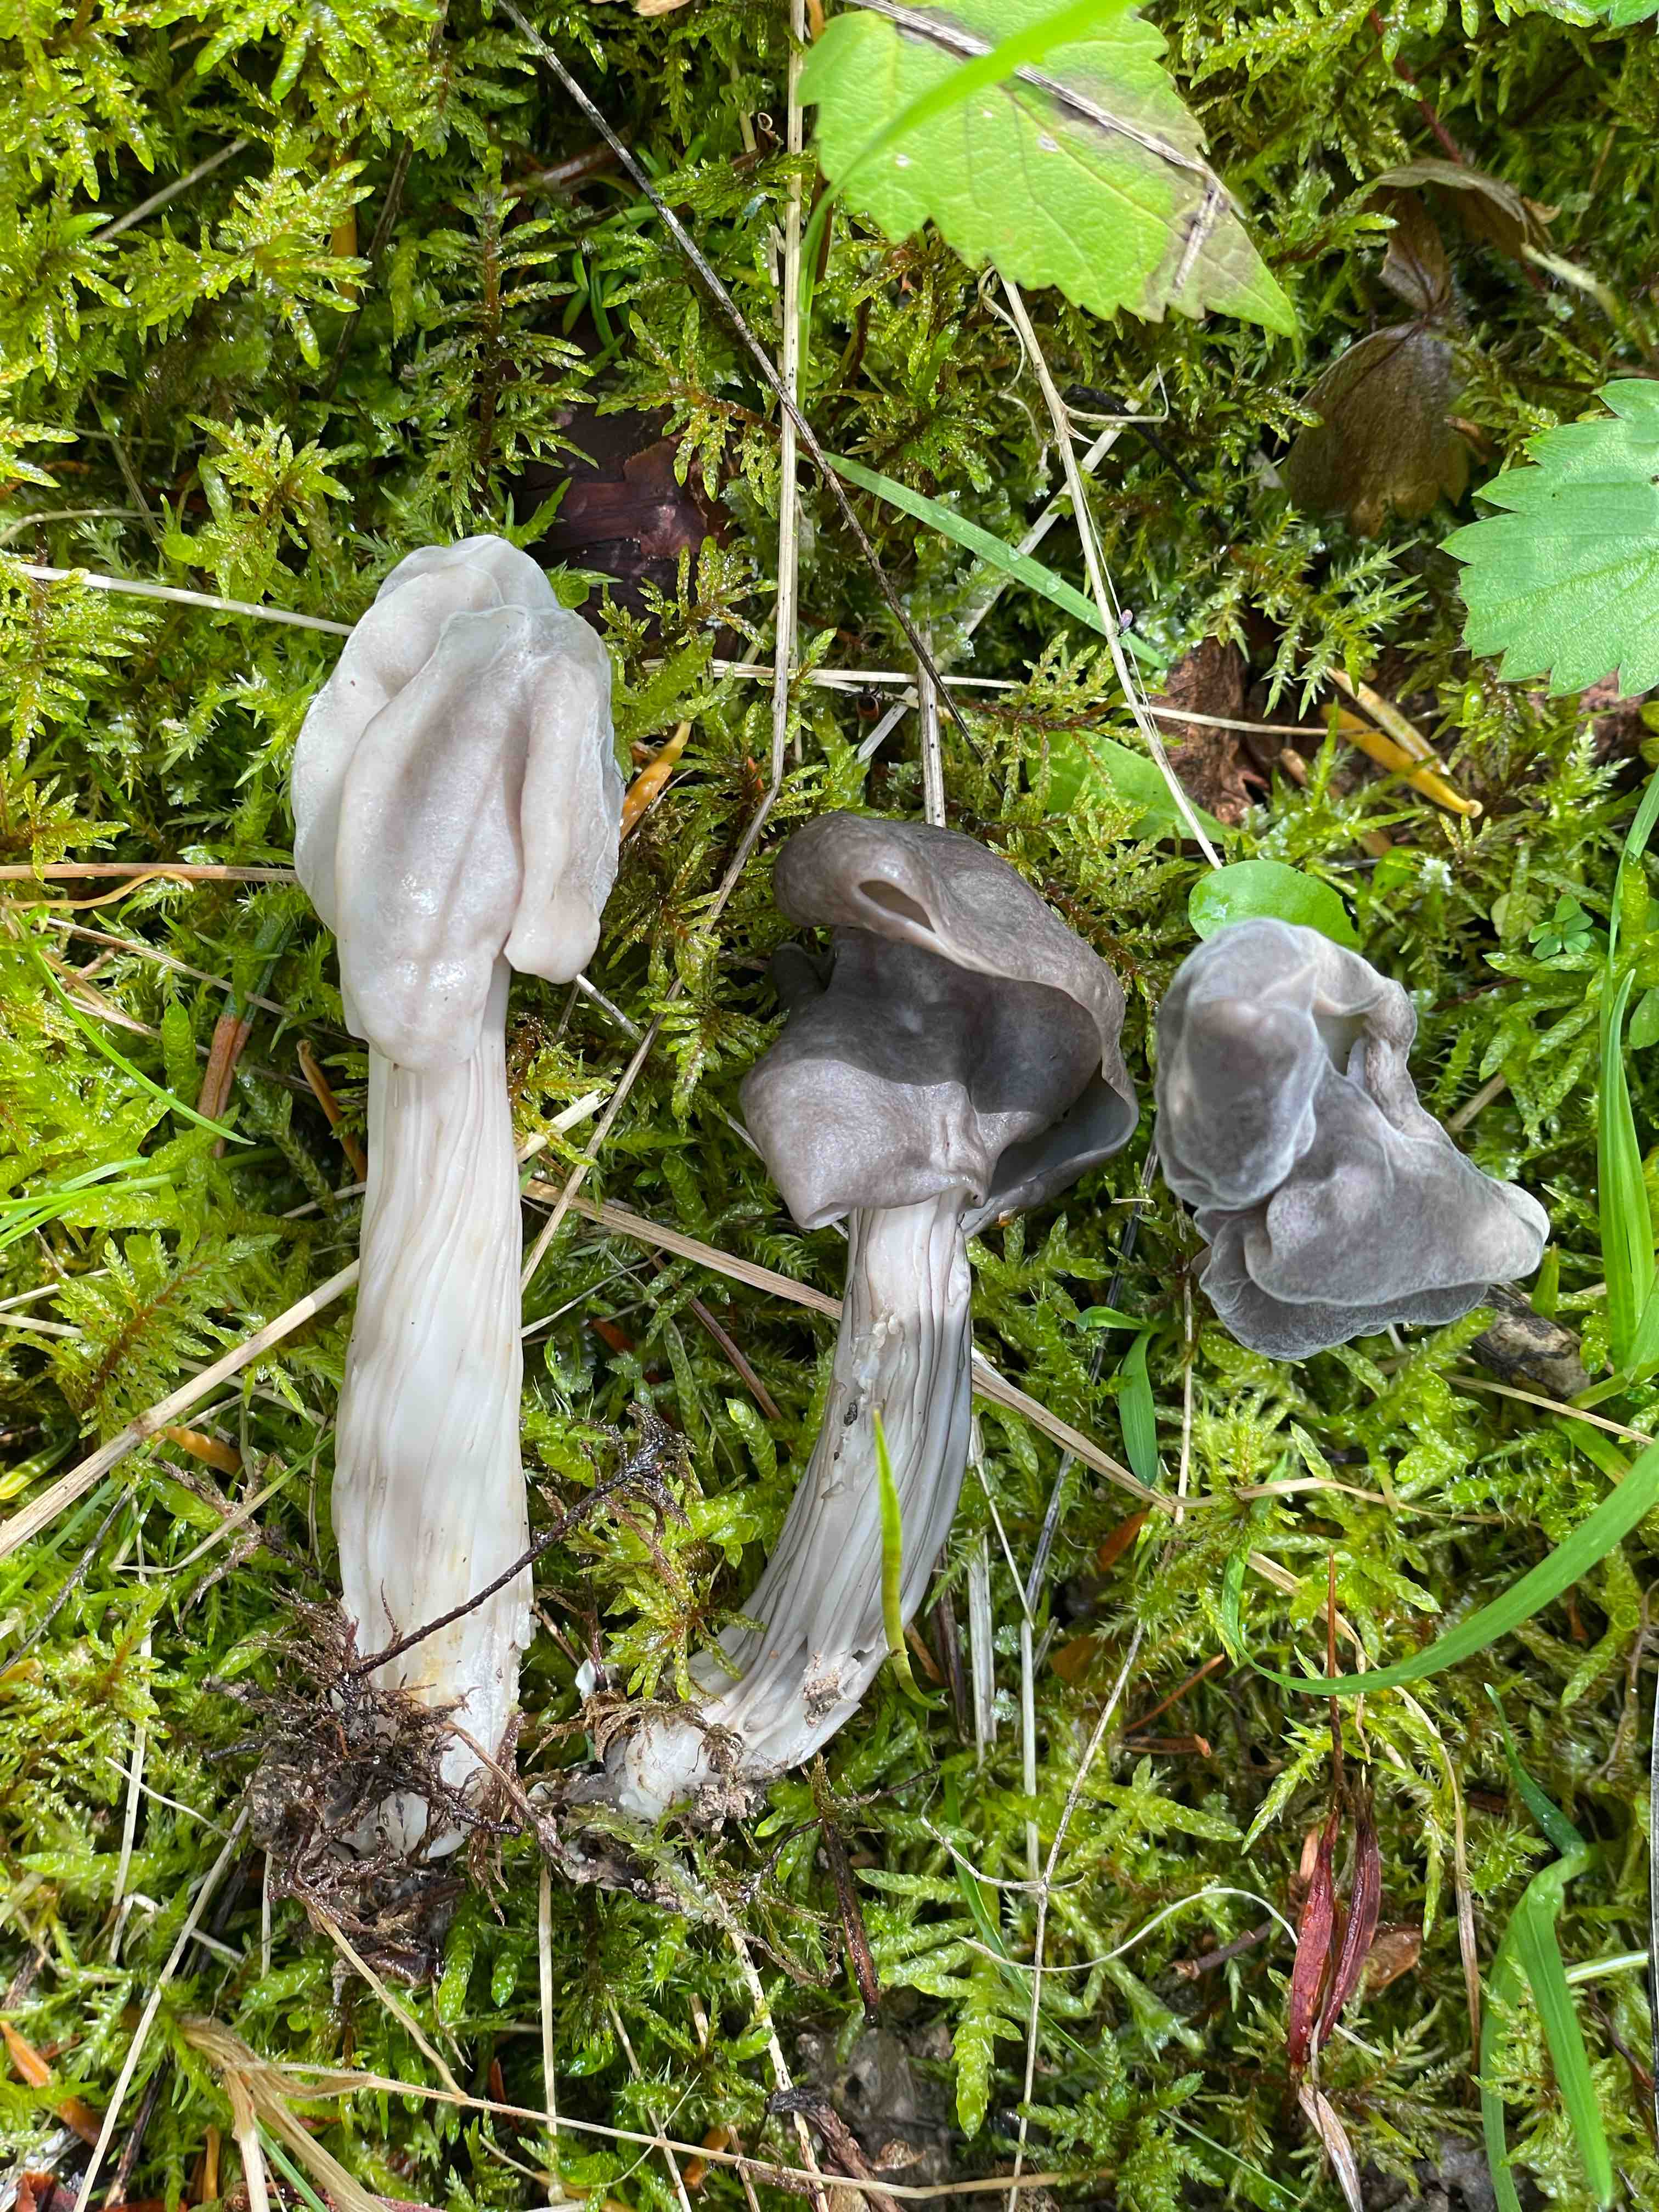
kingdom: Fungi
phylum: Ascomycota
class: Pezizomycetes
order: Pezizales
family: Helvellaceae
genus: Helvella
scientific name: Helvella lacunosa
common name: grubet foldhat
